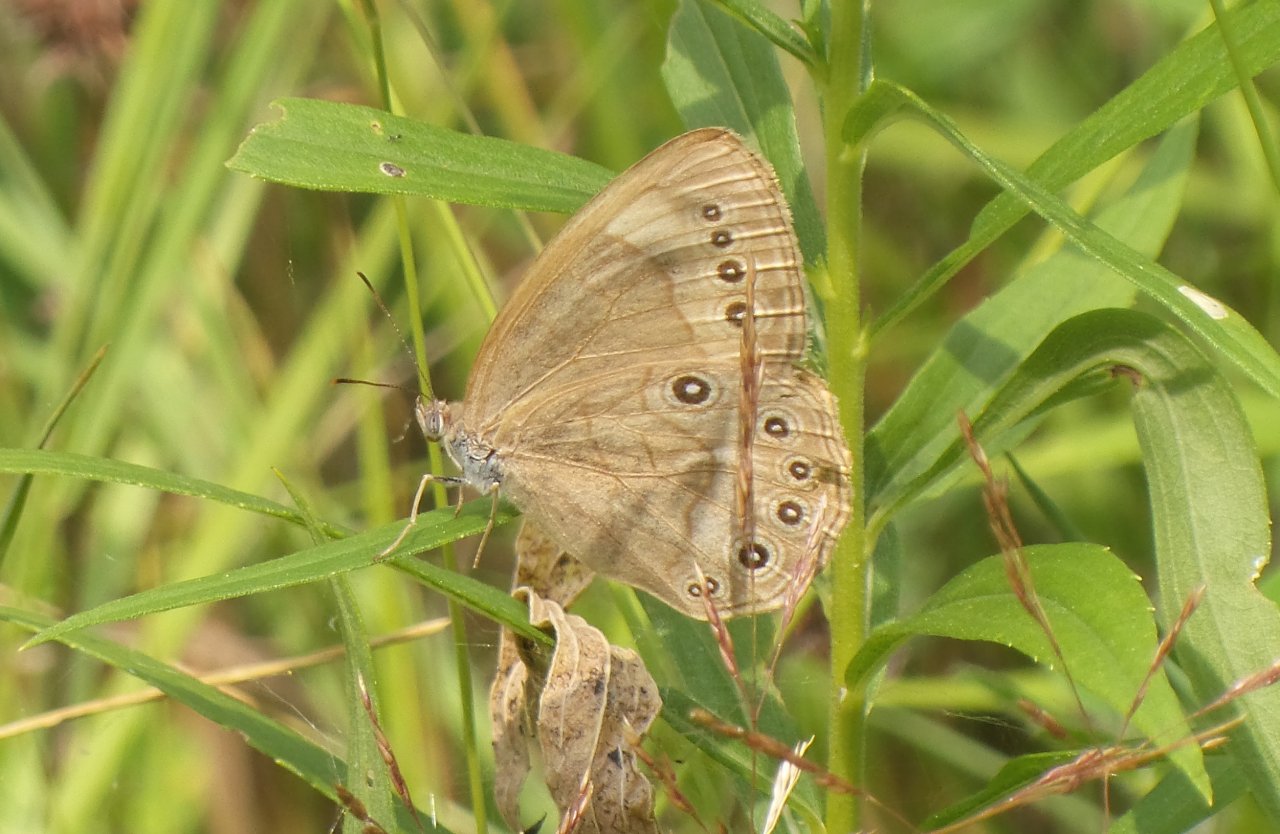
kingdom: Animalia
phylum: Arthropoda
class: Insecta
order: Lepidoptera
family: Nymphalidae
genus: Lethe
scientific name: Lethe eurydice
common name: Appalachian Eyed Brown
